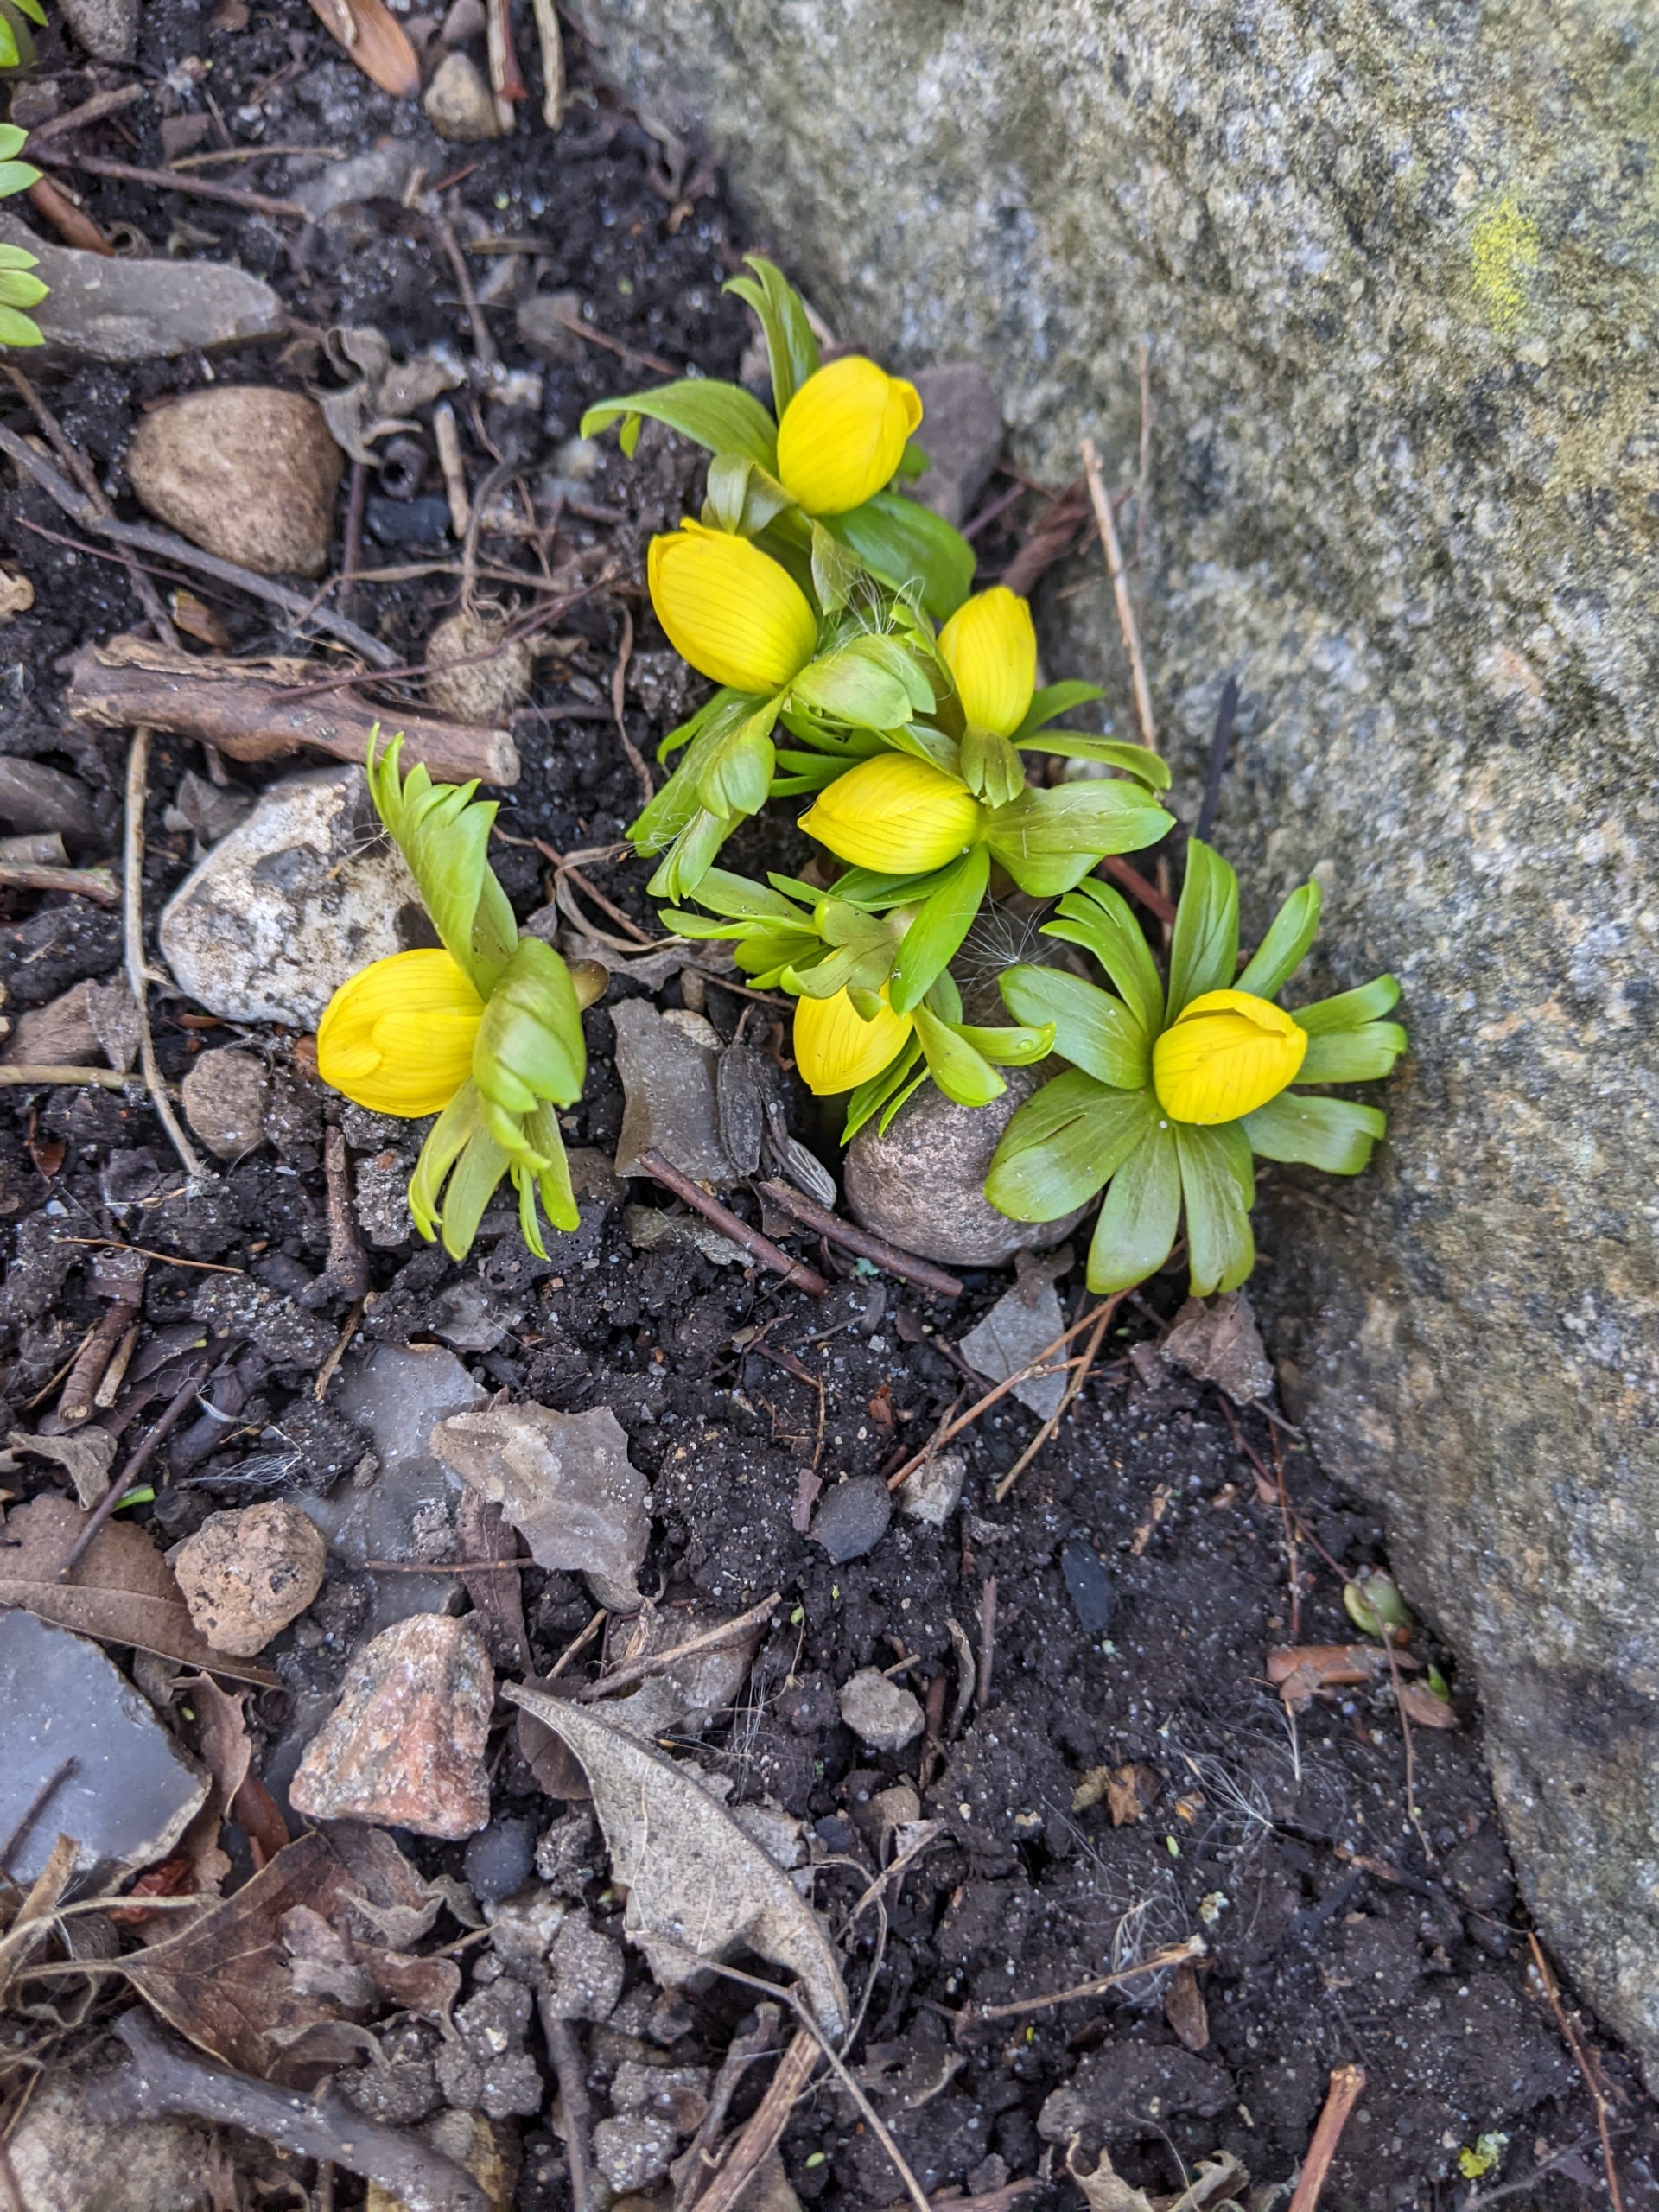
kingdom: Plantae
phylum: Tracheophyta
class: Magnoliopsida
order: Ranunculales
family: Ranunculaceae
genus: Eranthis
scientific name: Eranthis hyemalis
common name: Erantis
